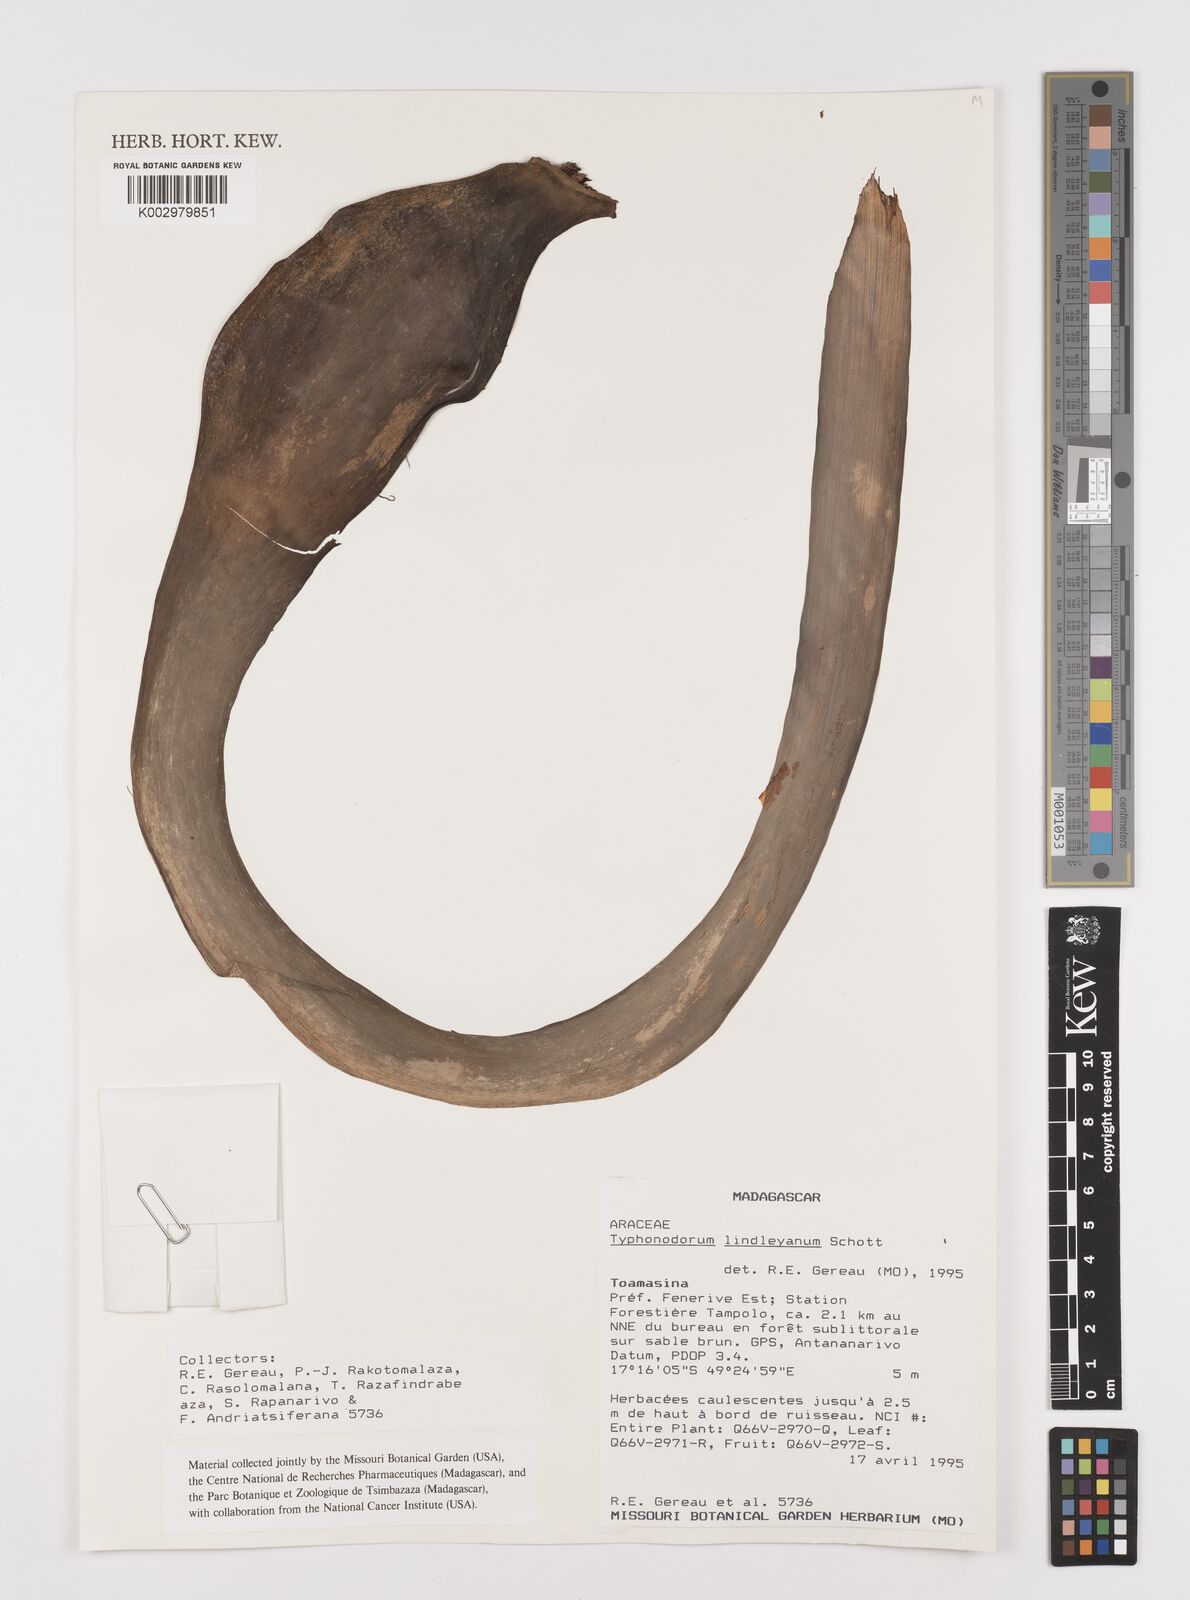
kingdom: Plantae
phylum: Tracheophyta
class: Liliopsida
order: Alismatales
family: Araceae
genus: Typhonodorum
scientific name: Typhonodorum lindleyanum
